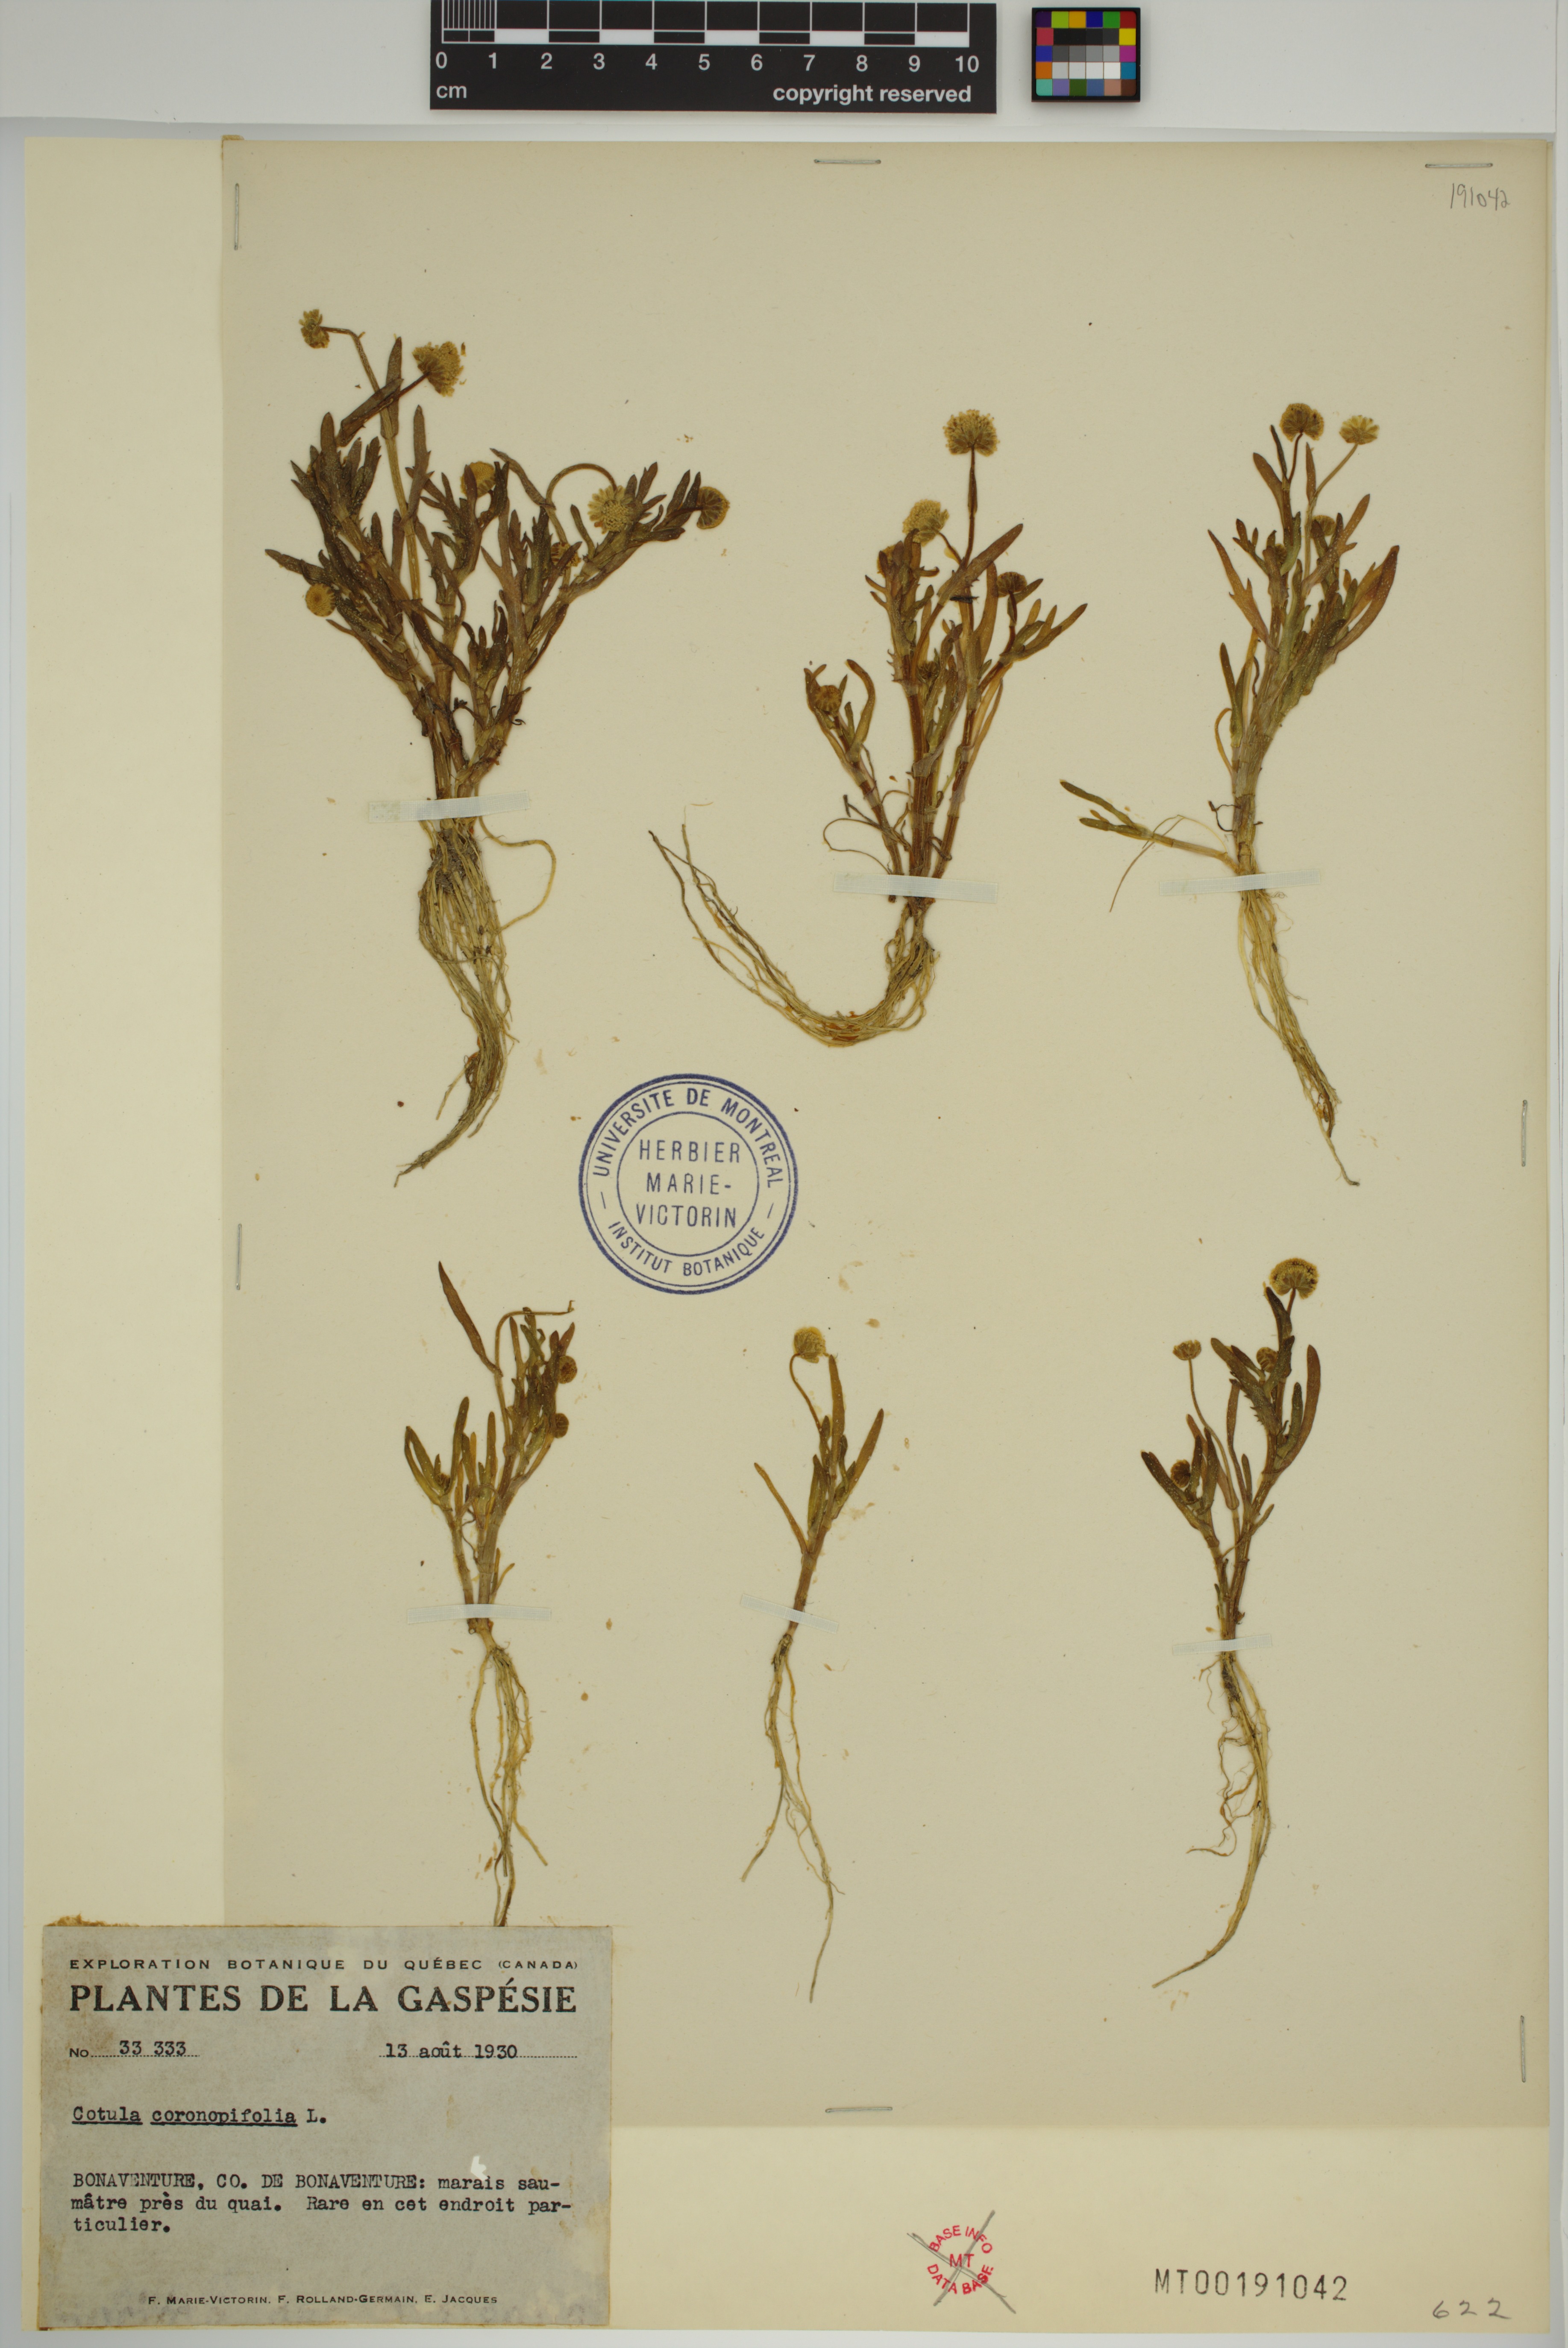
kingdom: Plantae
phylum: Tracheophyta
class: Magnoliopsida
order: Asterales
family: Asteraceae
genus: Cotula
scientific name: Cotula coronopifolia
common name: Buttonweed
